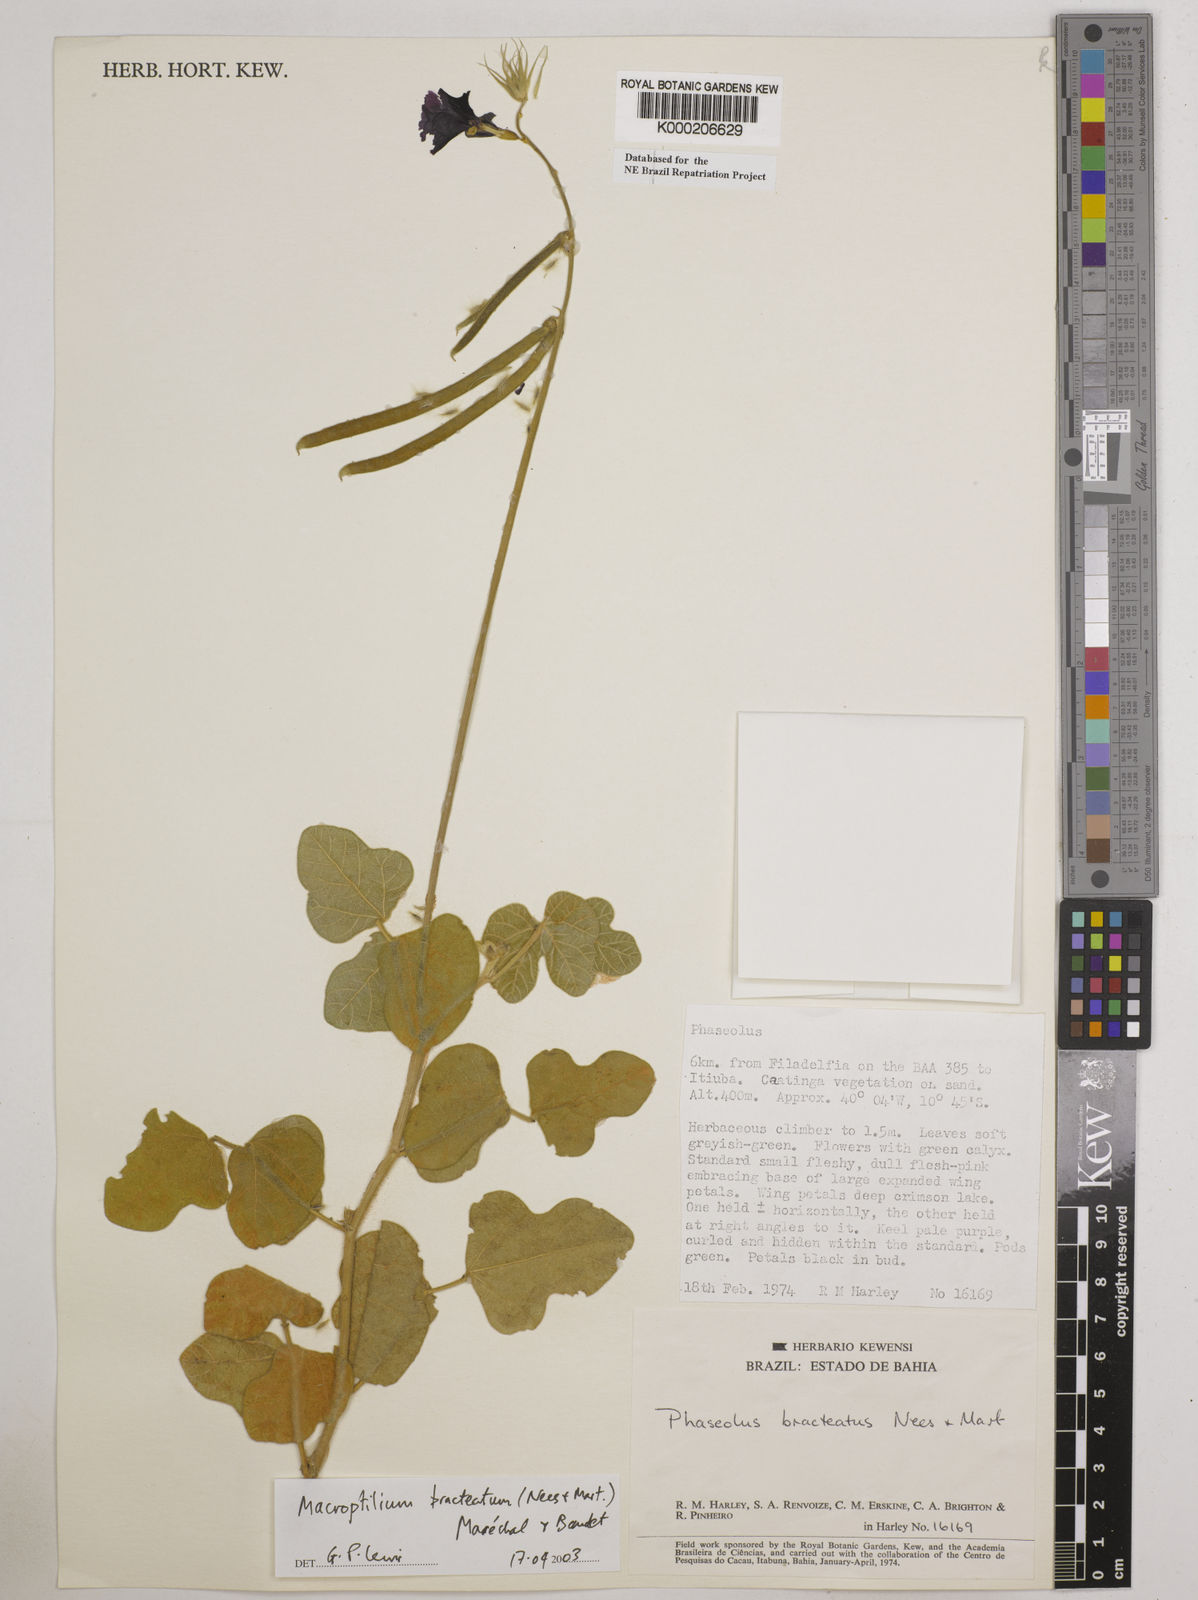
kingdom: Plantae
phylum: Tracheophyta
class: Magnoliopsida
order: Fabales
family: Fabaceae
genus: Macroptilium
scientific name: Macroptilium
